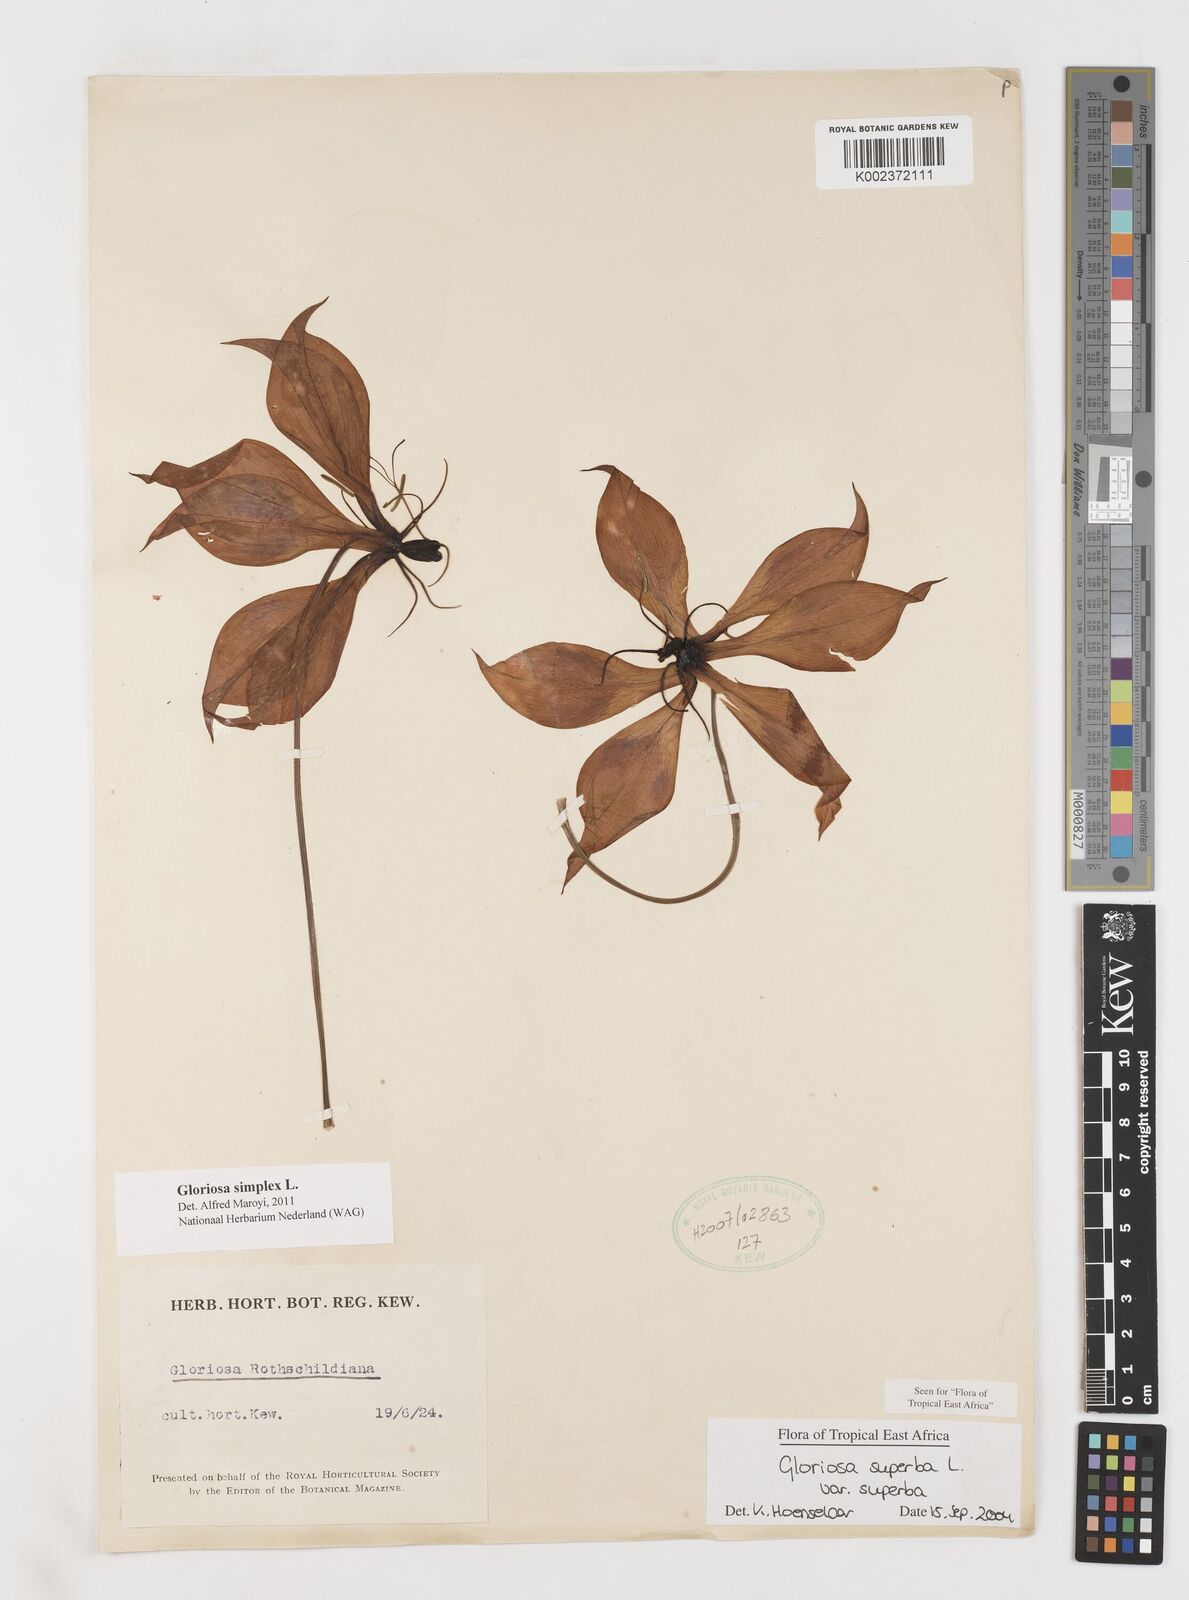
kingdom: Plantae
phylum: Tracheophyta
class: Liliopsida
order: Liliales
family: Colchicaceae
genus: Gloriosa
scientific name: Gloriosa simplex
